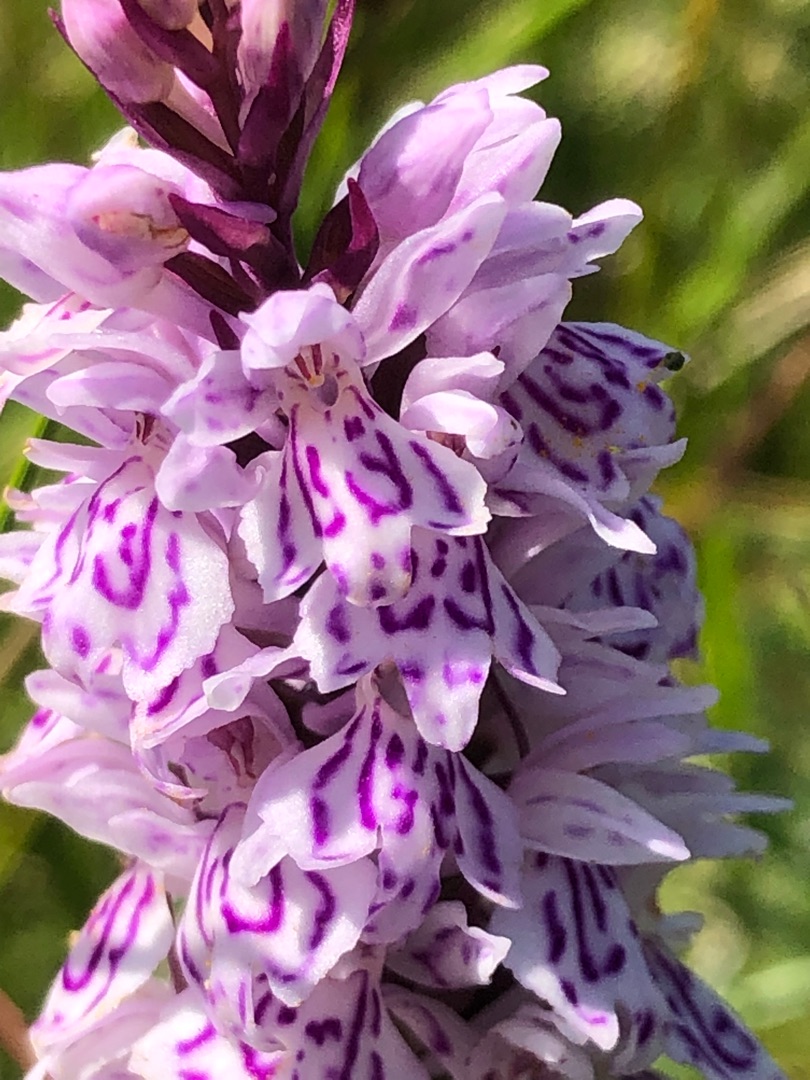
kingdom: Plantae
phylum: Tracheophyta
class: Liliopsida
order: Asparagales
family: Orchidaceae
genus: Dactylorhiza
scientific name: Dactylorhiza maculata
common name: Plettet gøgeurt
